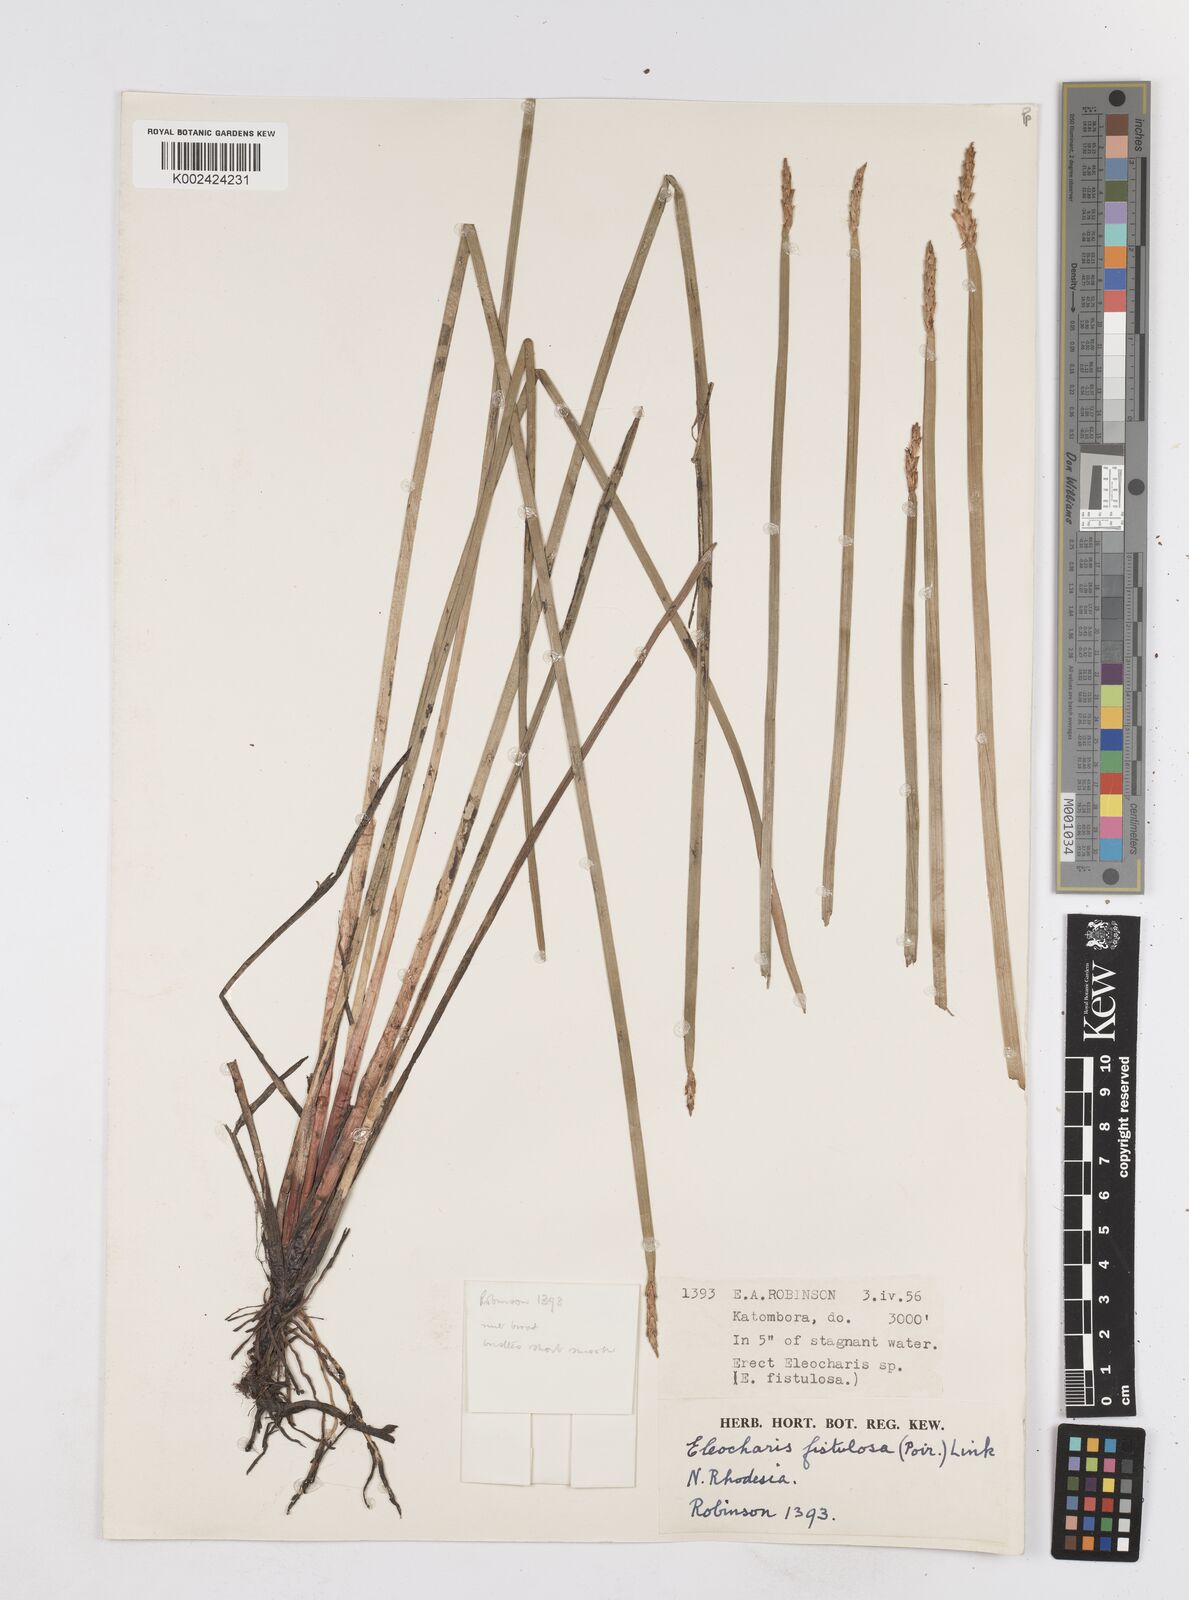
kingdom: Plantae
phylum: Tracheophyta
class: Liliopsida
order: Poales
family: Cyperaceae
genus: Eleocharis
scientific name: Eleocharis acutangula
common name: Acute spikerush
